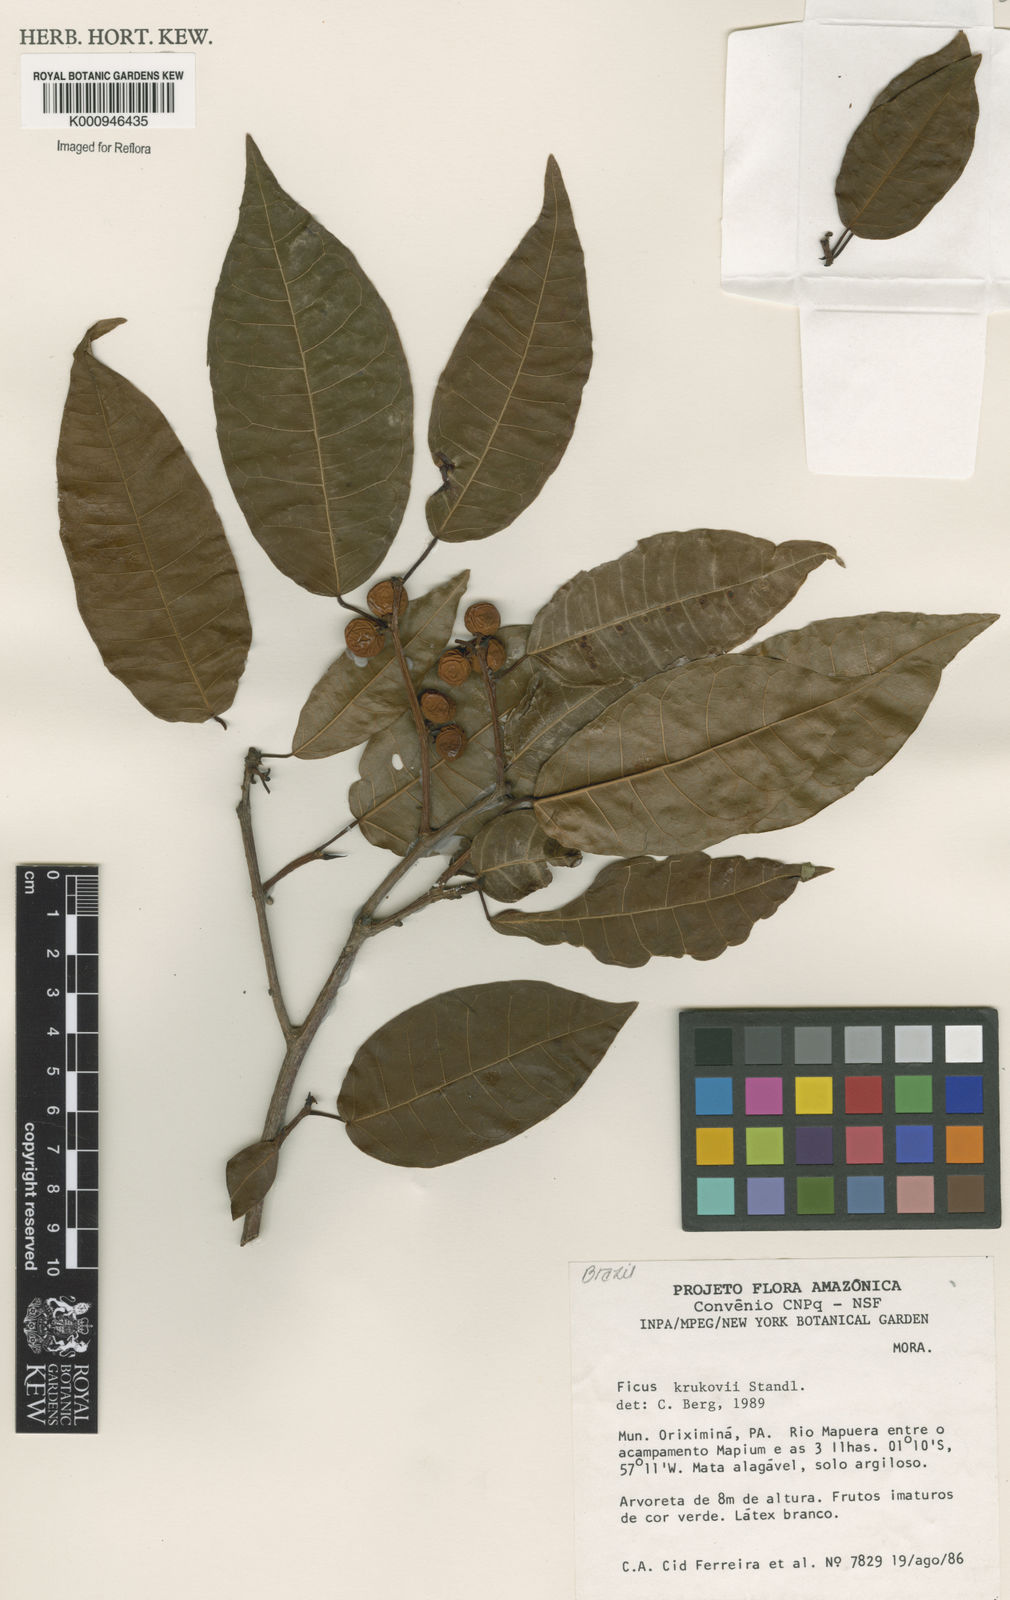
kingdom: Plantae
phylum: Tracheophyta
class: Magnoliopsida
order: Rosales
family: Moraceae
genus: Ficus
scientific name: Ficus krukovii
